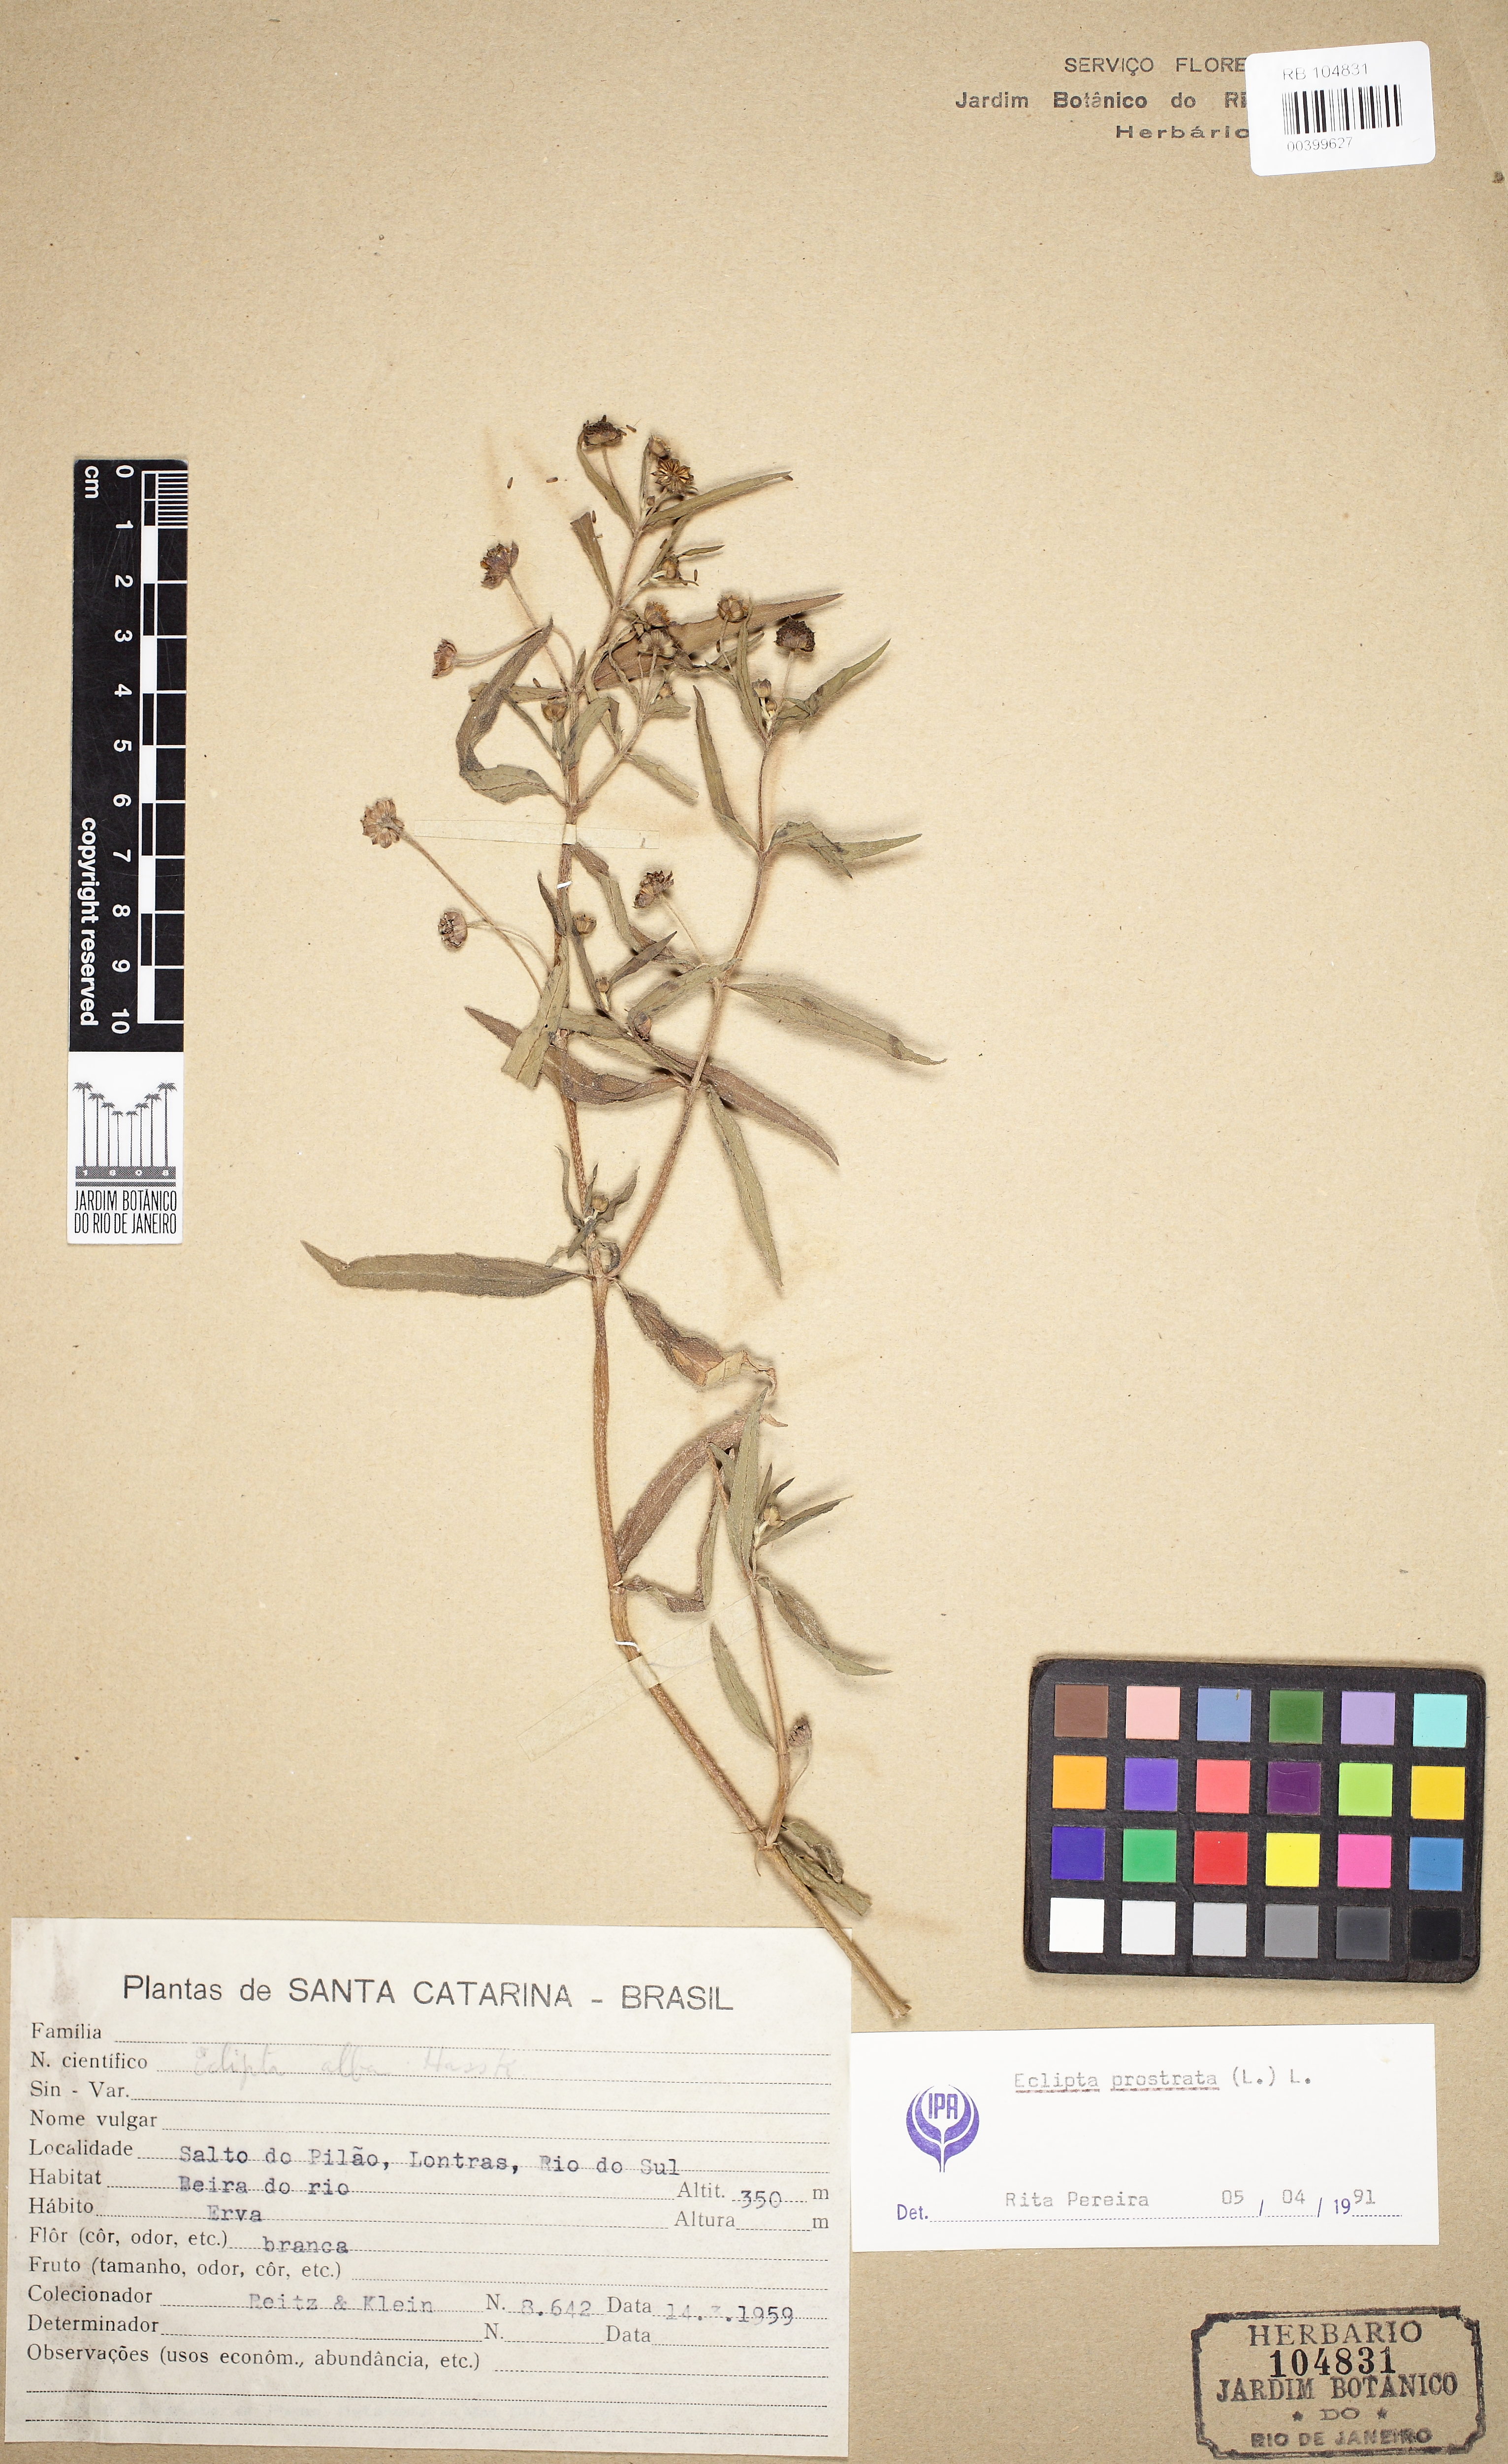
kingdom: Plantae
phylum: Tracheophyta
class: Magnoliopsida
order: Asterales
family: Asteraceae
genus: Eclipta
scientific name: Eclipta prostrata
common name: False daisy
